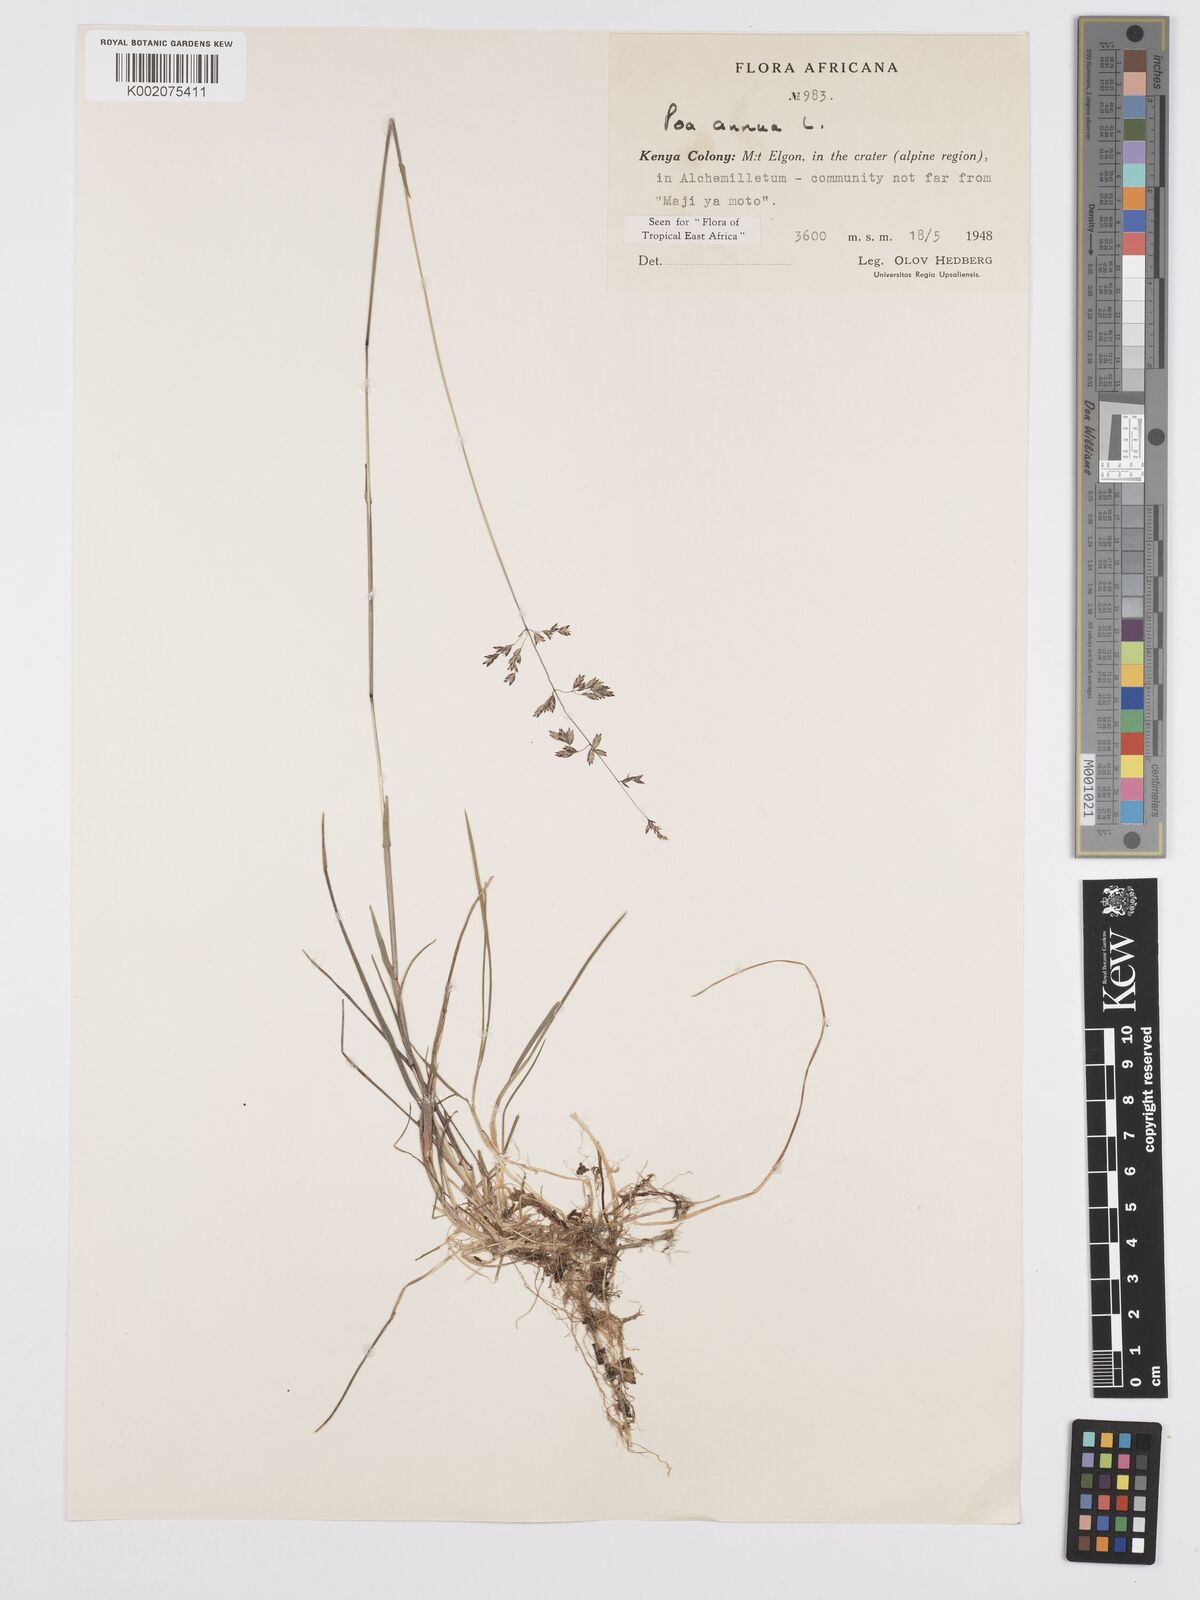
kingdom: Plantae
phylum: Tracheophyta
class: Liliopsida
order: Poales
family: Poaceae
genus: Poa
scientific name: Poa annua
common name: Annual bluegrass
